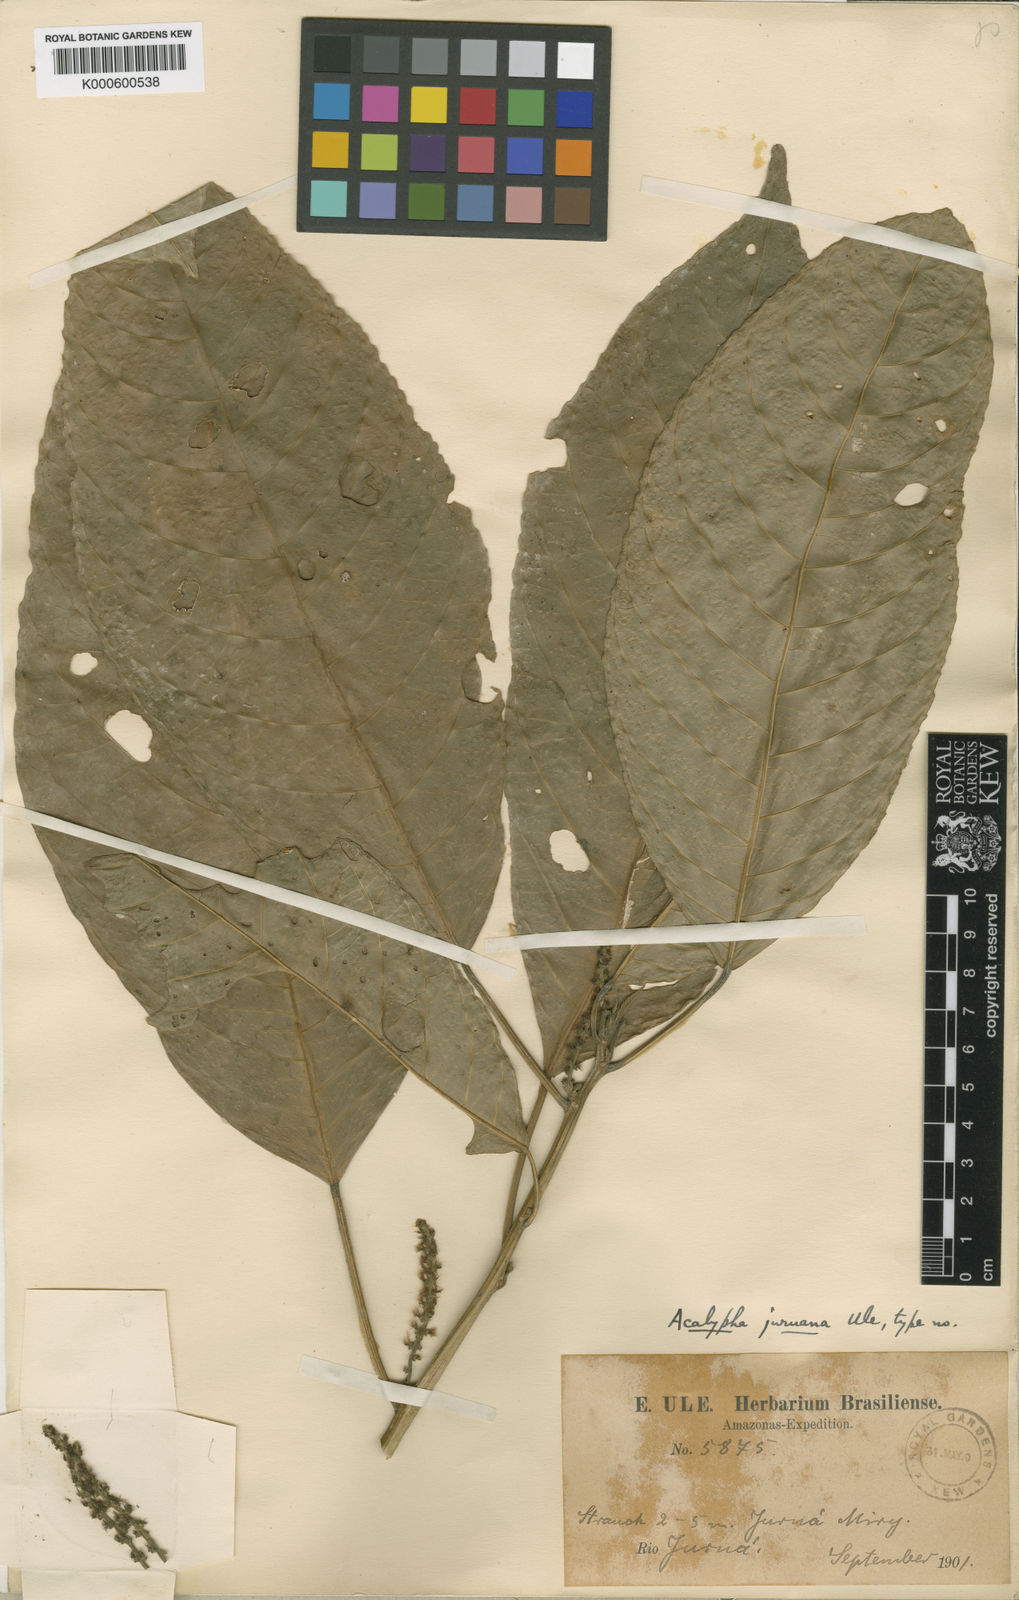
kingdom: Plantae
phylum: Tracheophyta
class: Magnoliopsida
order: Malpighiales
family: Euphorbiaceae
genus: Acalypha
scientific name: Acalypha juruana
